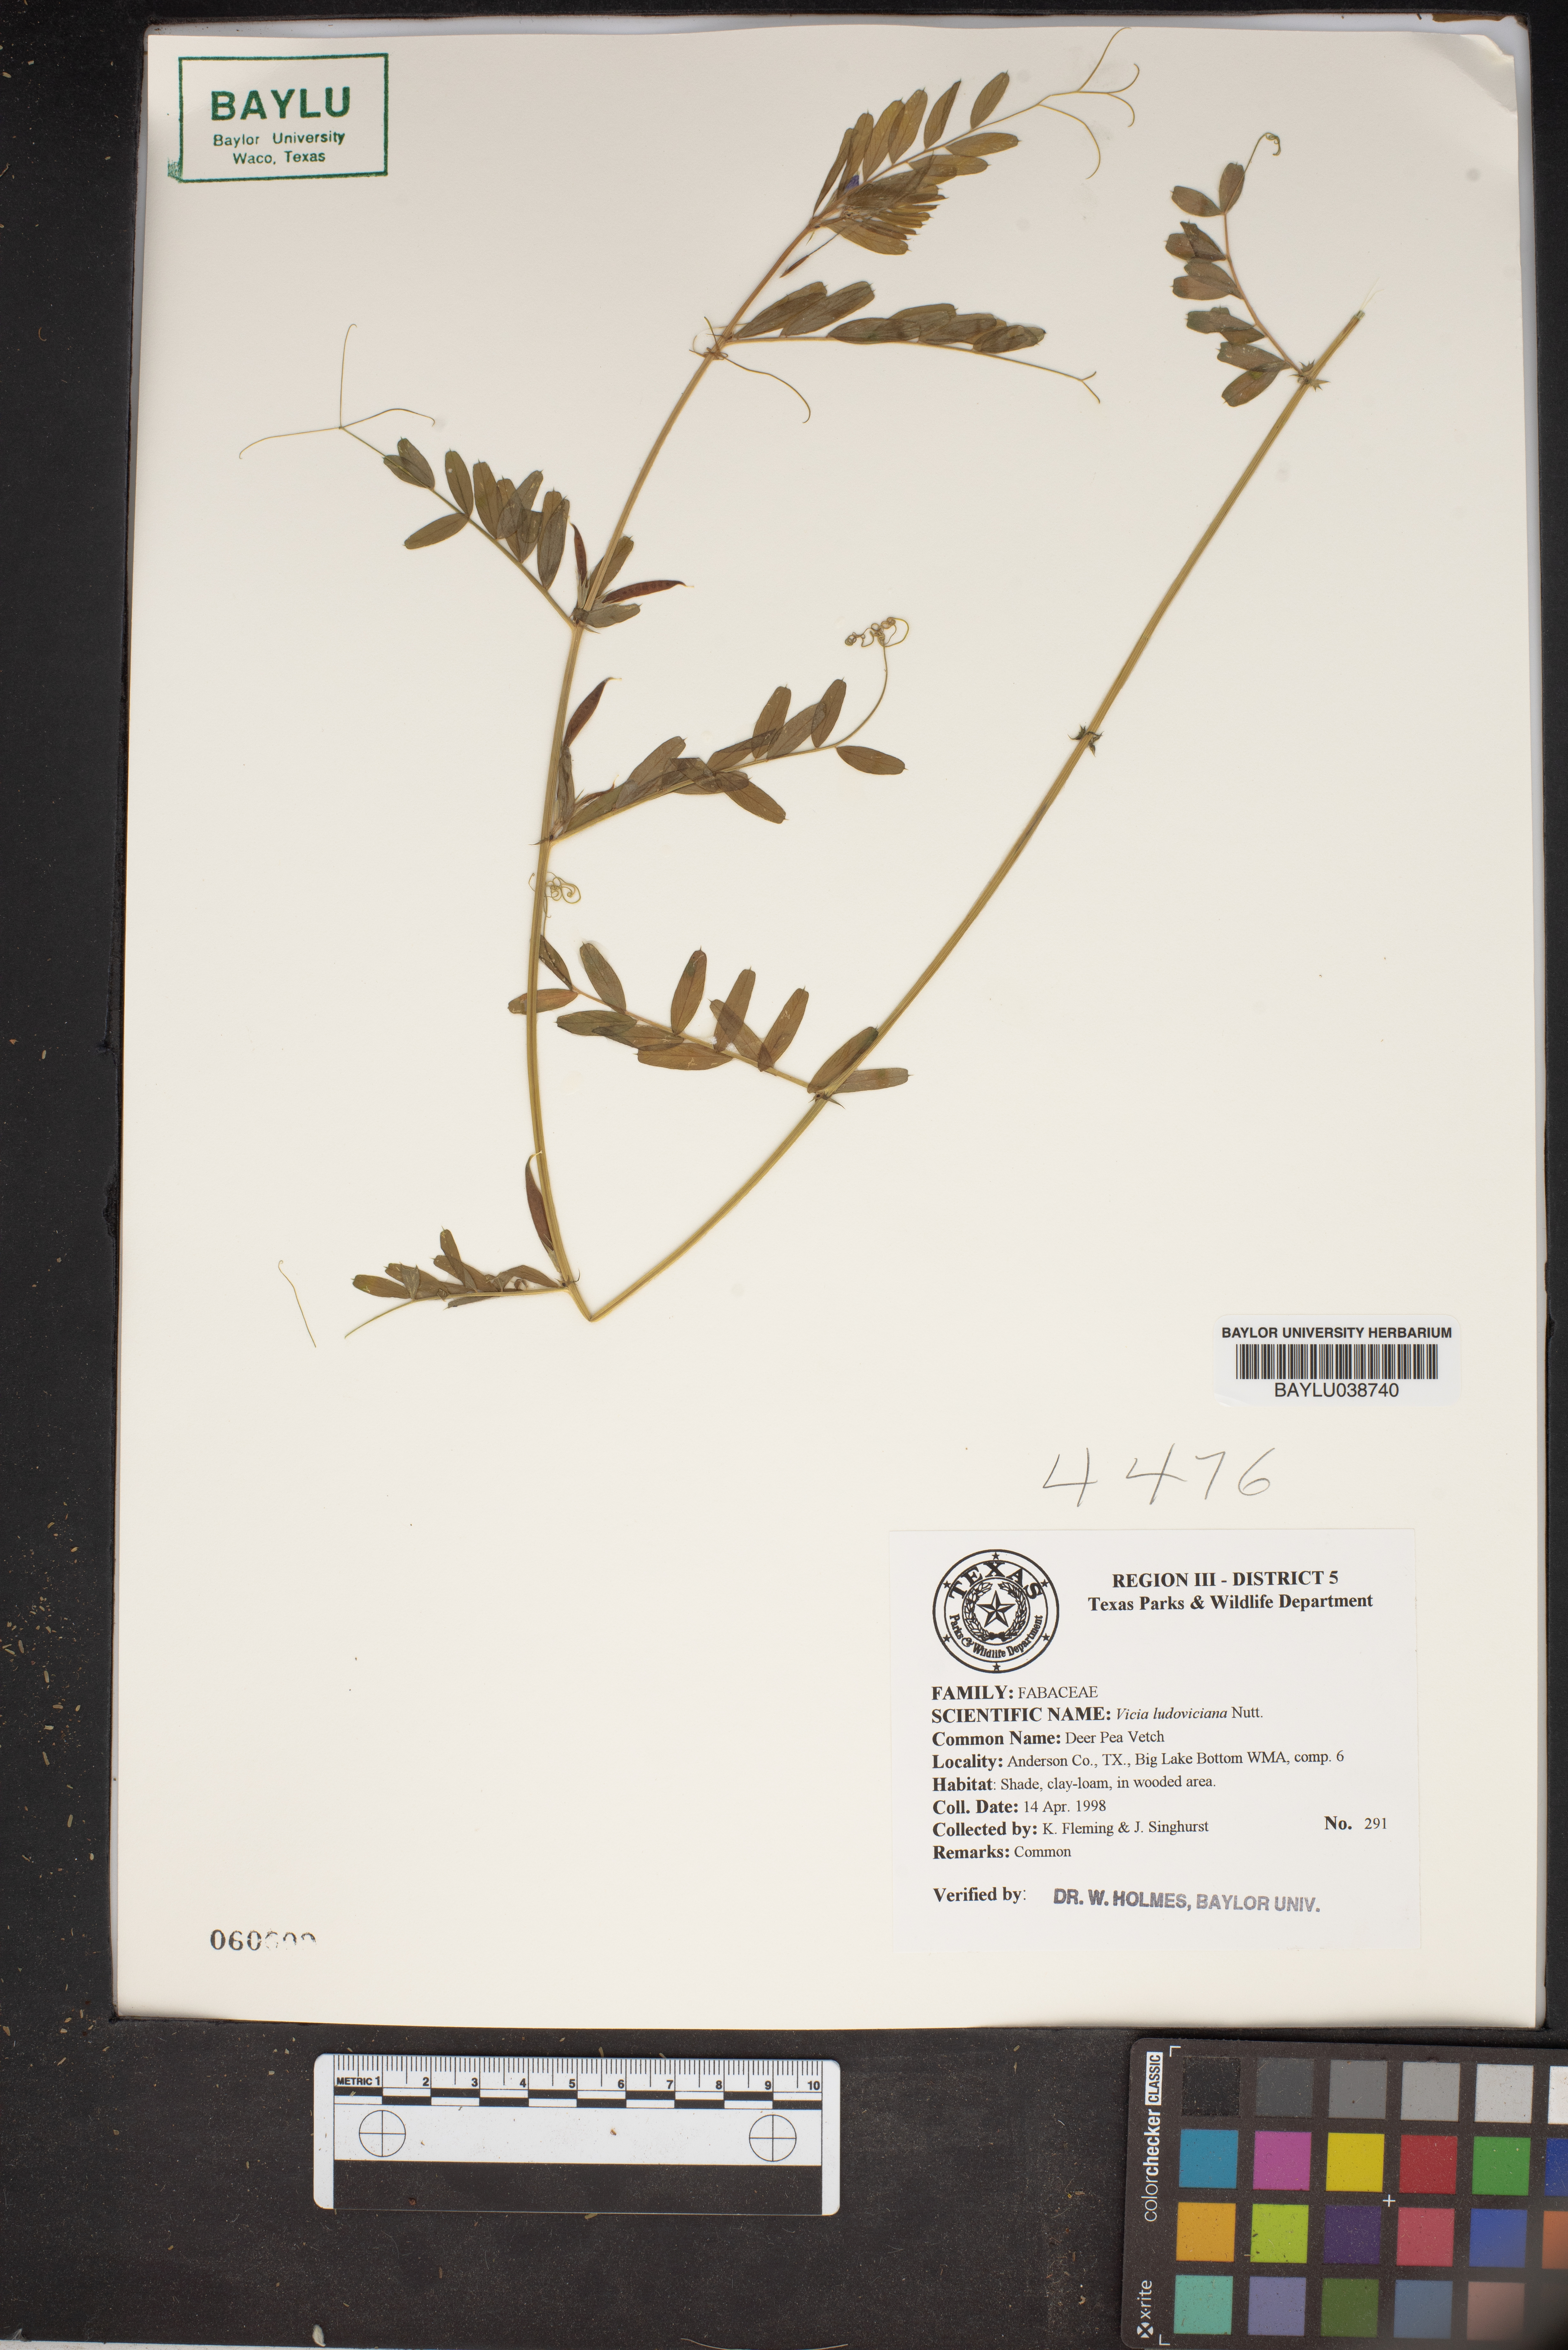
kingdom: Plantae
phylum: Tracheophyta
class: Magnoliopsida
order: Fabales
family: Fabaceae
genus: Vicia
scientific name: Vicia ludoviciana
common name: Louisiana vetch
